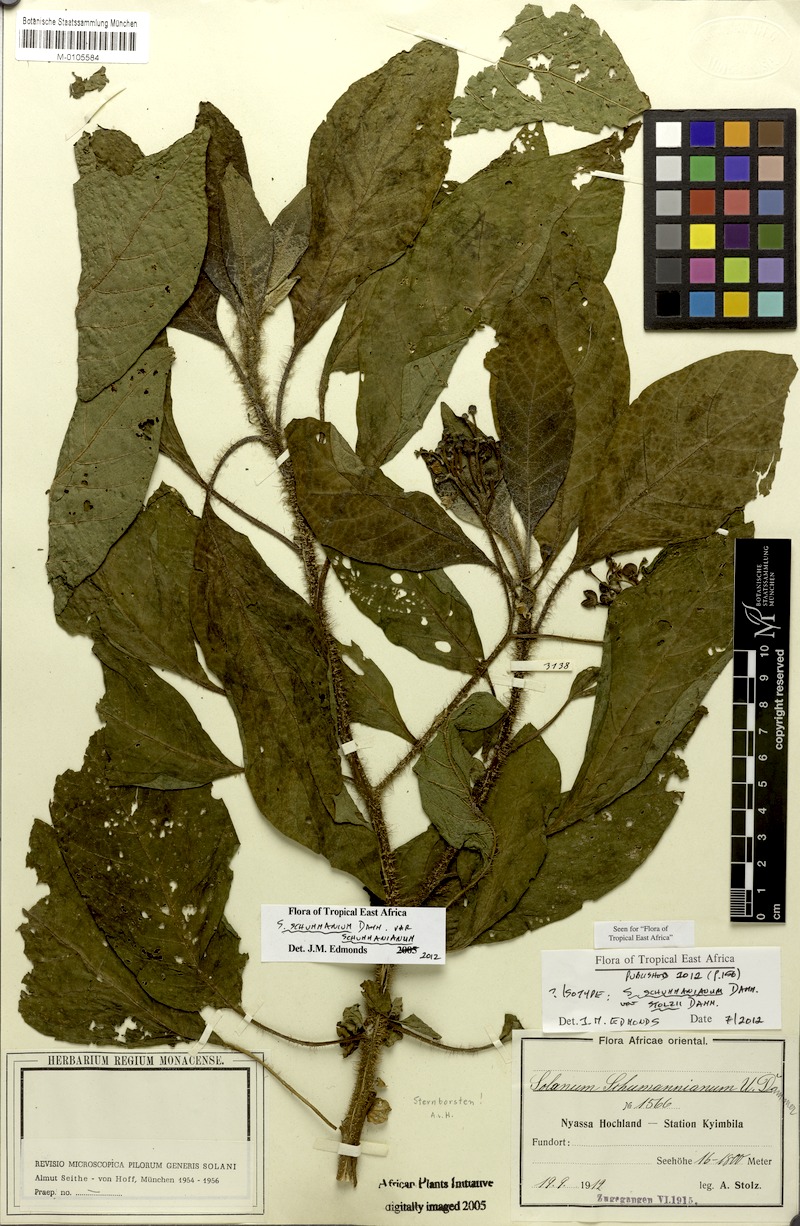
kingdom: Plantae
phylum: Tracheophyta
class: Magnoliopsida
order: Solanales
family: Solanaceae
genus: Solanum
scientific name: Solanum schumannianum
